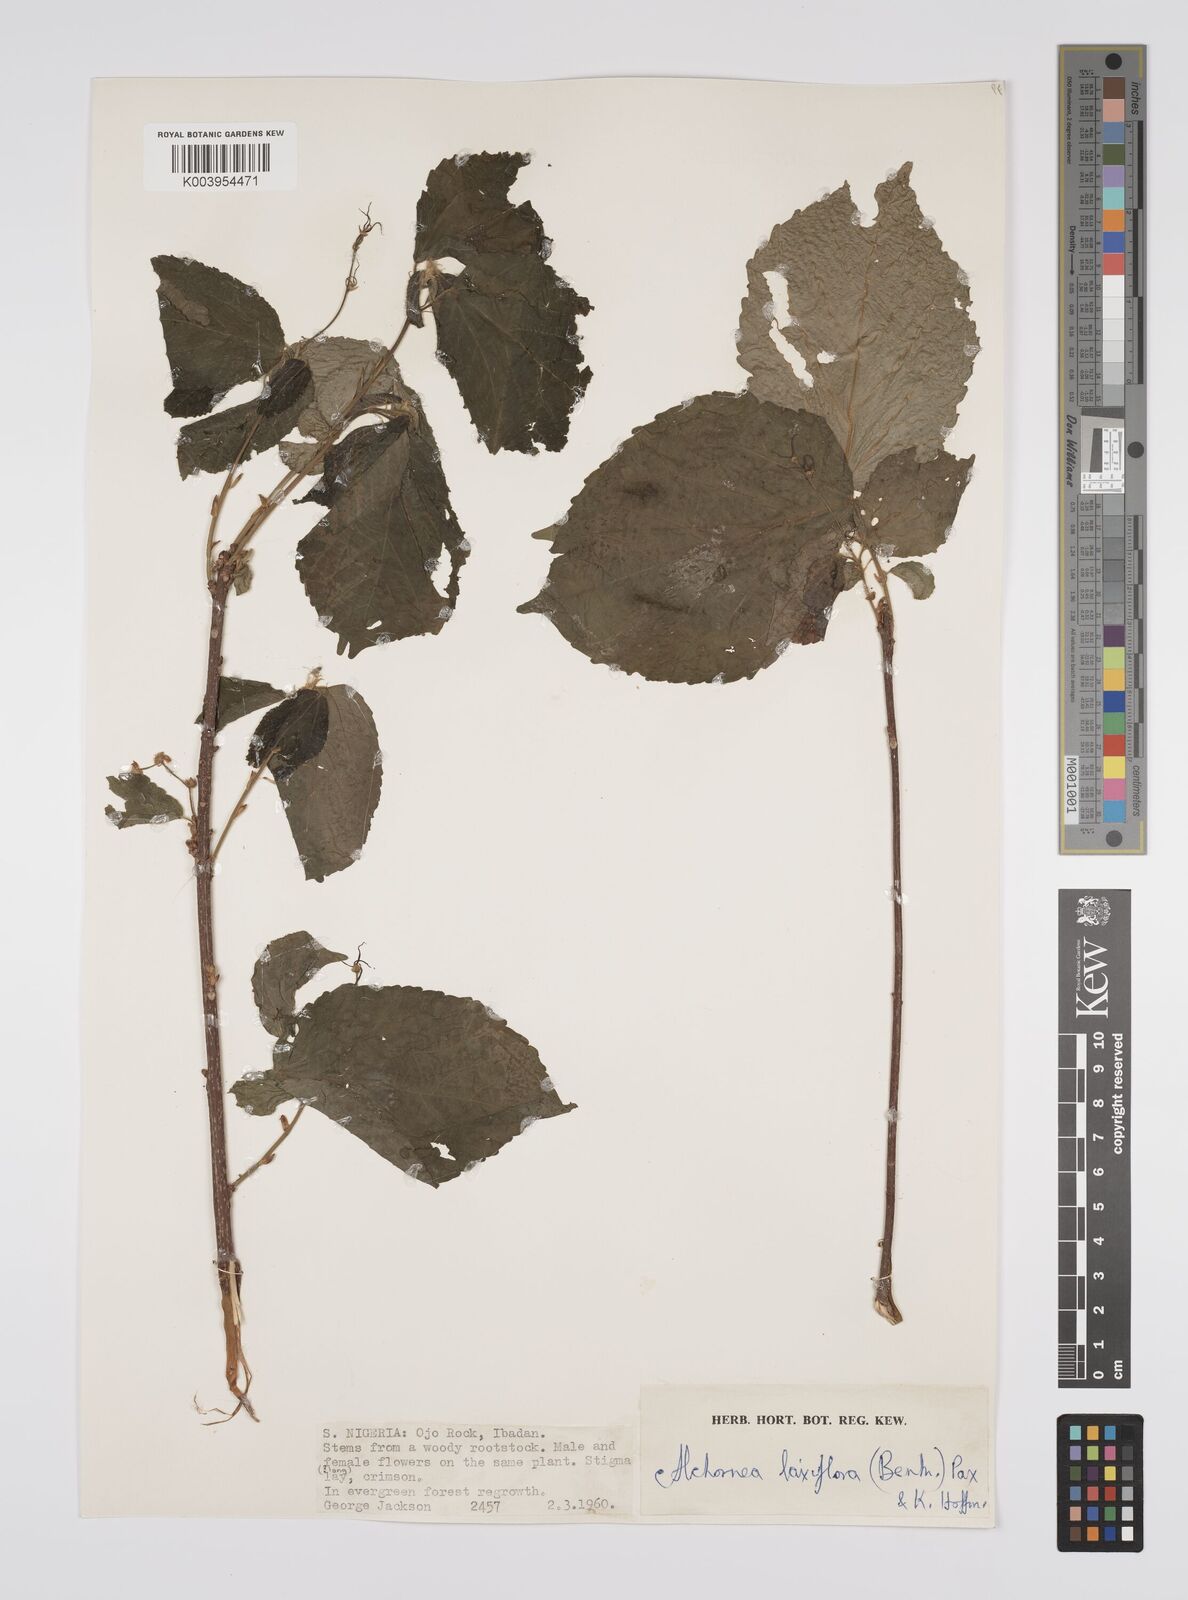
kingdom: Plantae
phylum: Tracheophyta
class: Magnoliopsida
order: Malpighiales
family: Euphorbiaceae
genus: Alchornea
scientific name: Alchornea laxiflora
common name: Lowveld bead-string
